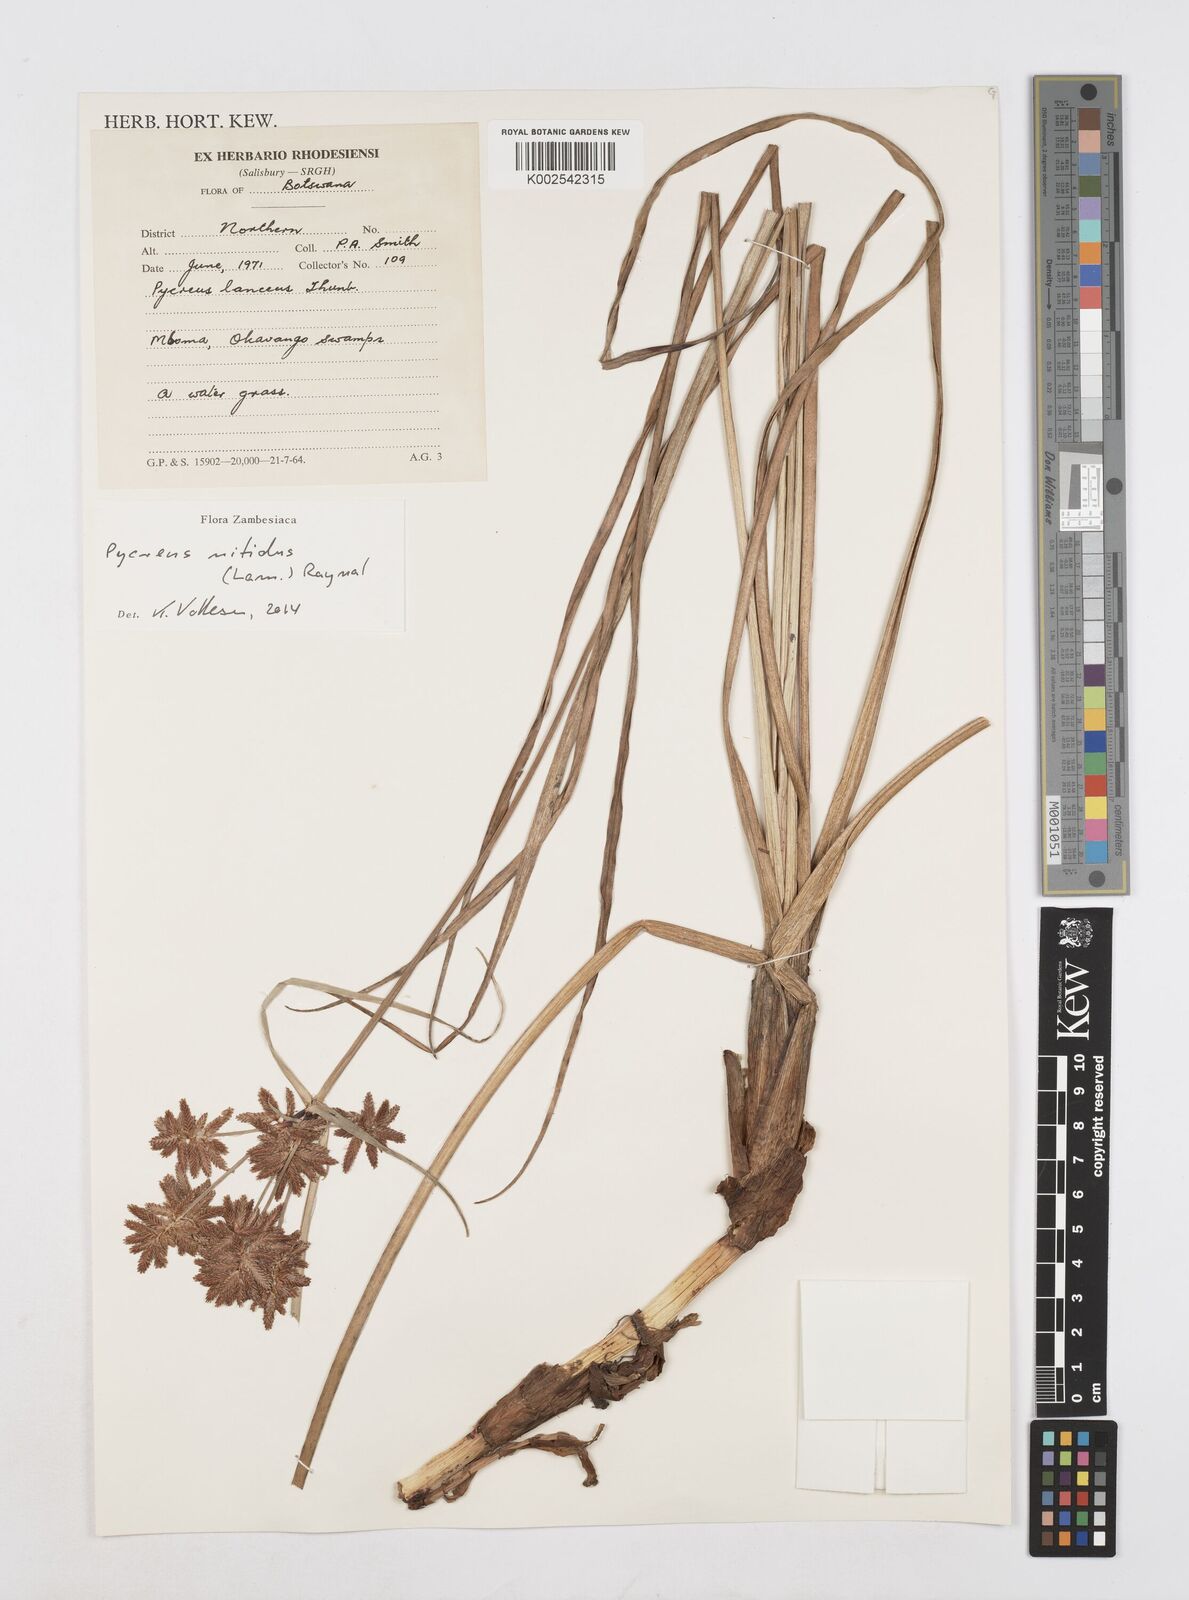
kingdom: Plantae
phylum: Tracheophyta
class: Liliopsida
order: Poales
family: Cyperaceae
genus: Cyperus
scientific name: Cyperus nitidus
